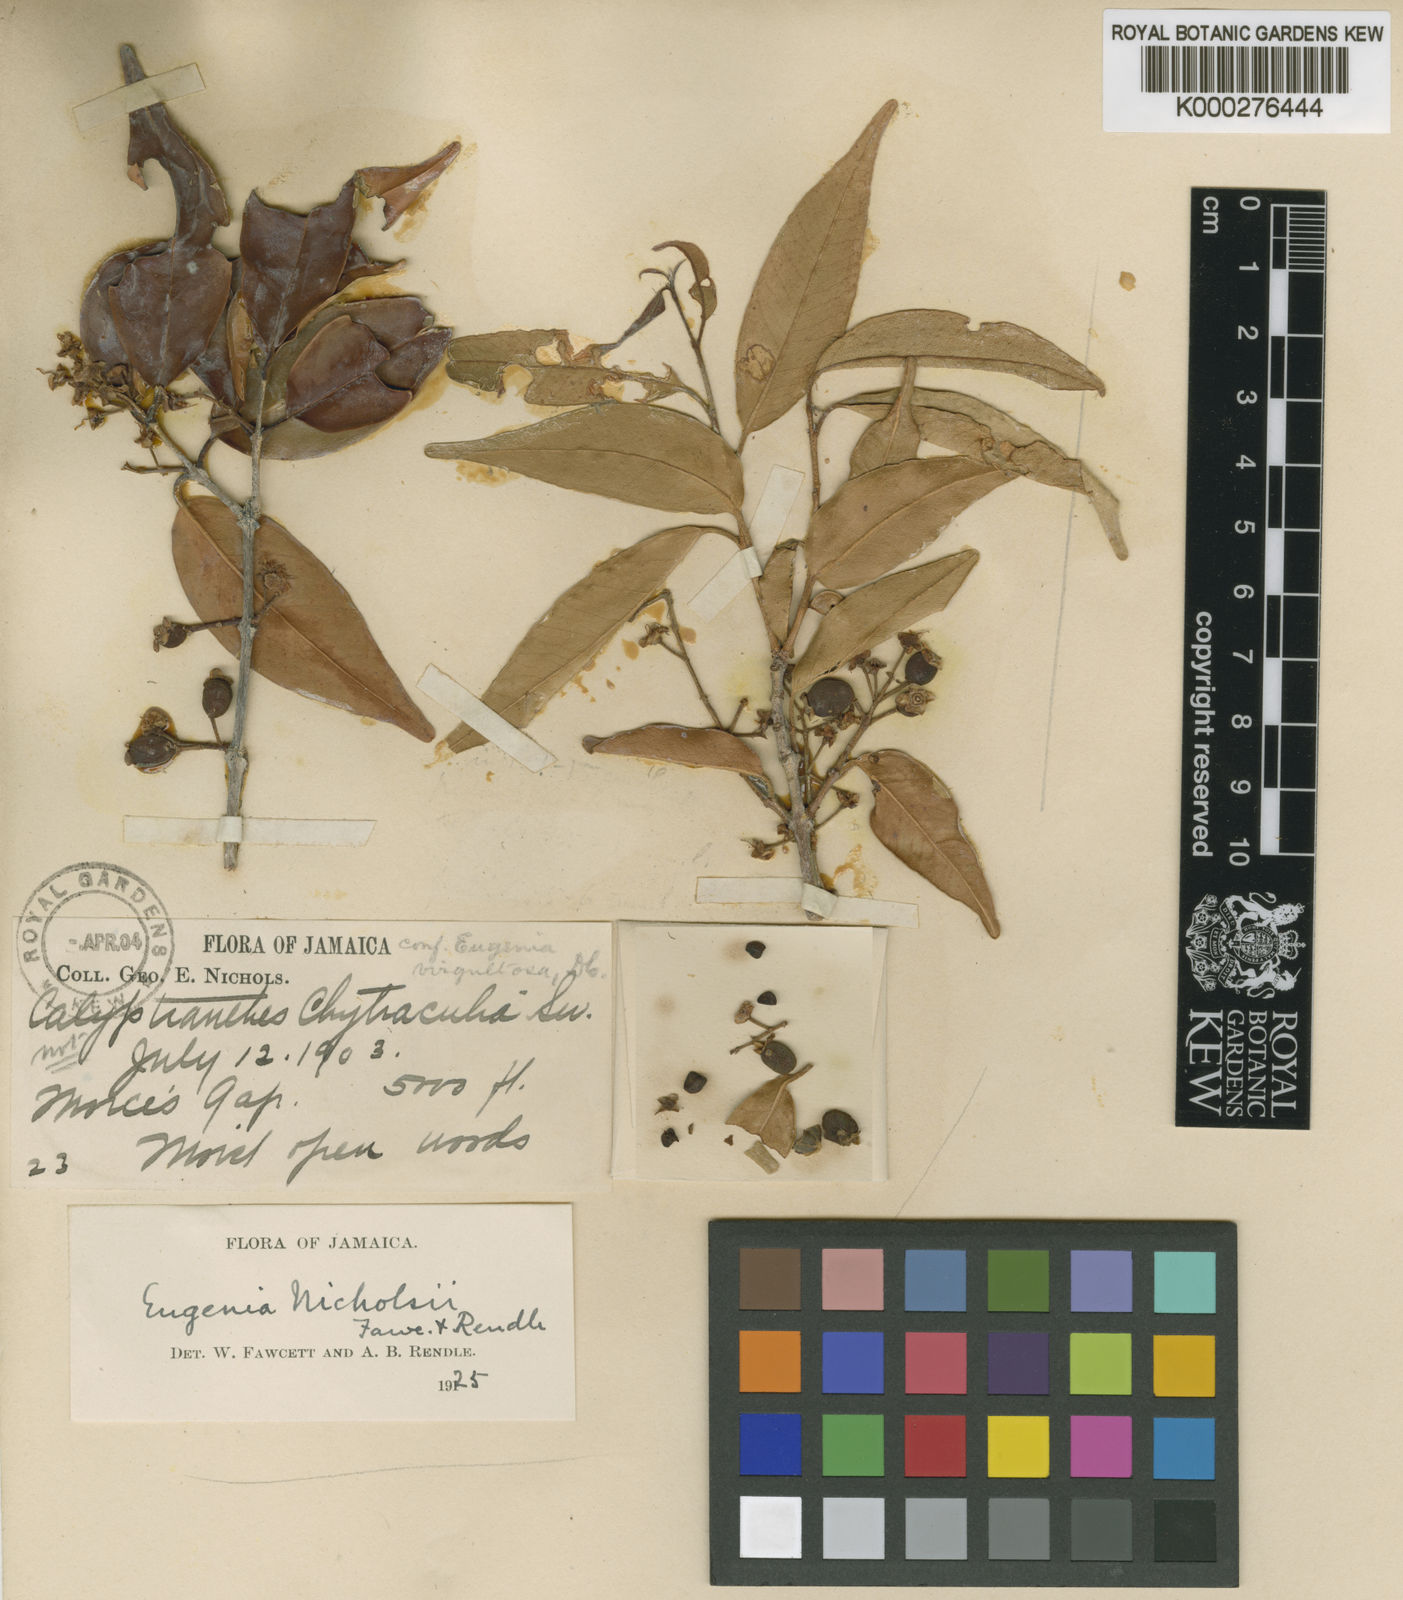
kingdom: Plantae
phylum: Tracheophyta
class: Magnoliopsida
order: Myrtales
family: Myrtaceae
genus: Eugenia
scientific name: Eugenia nicholsii
